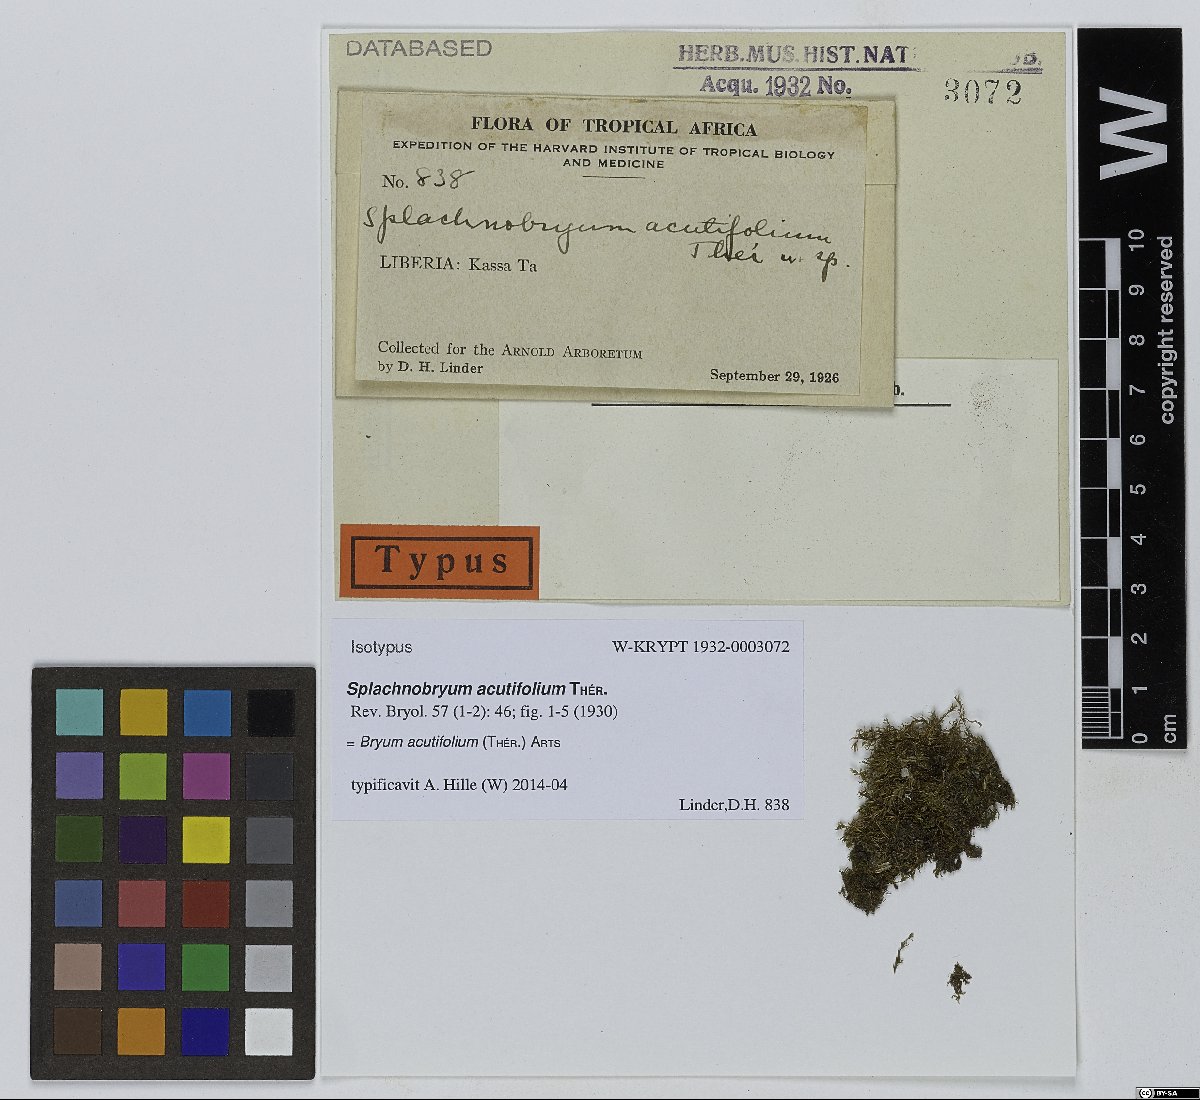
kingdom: Plantae
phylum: Bryophyta
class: Bryopsida
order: Bryales
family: Bryaceae
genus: Bryum
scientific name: Bryum acutifolium
